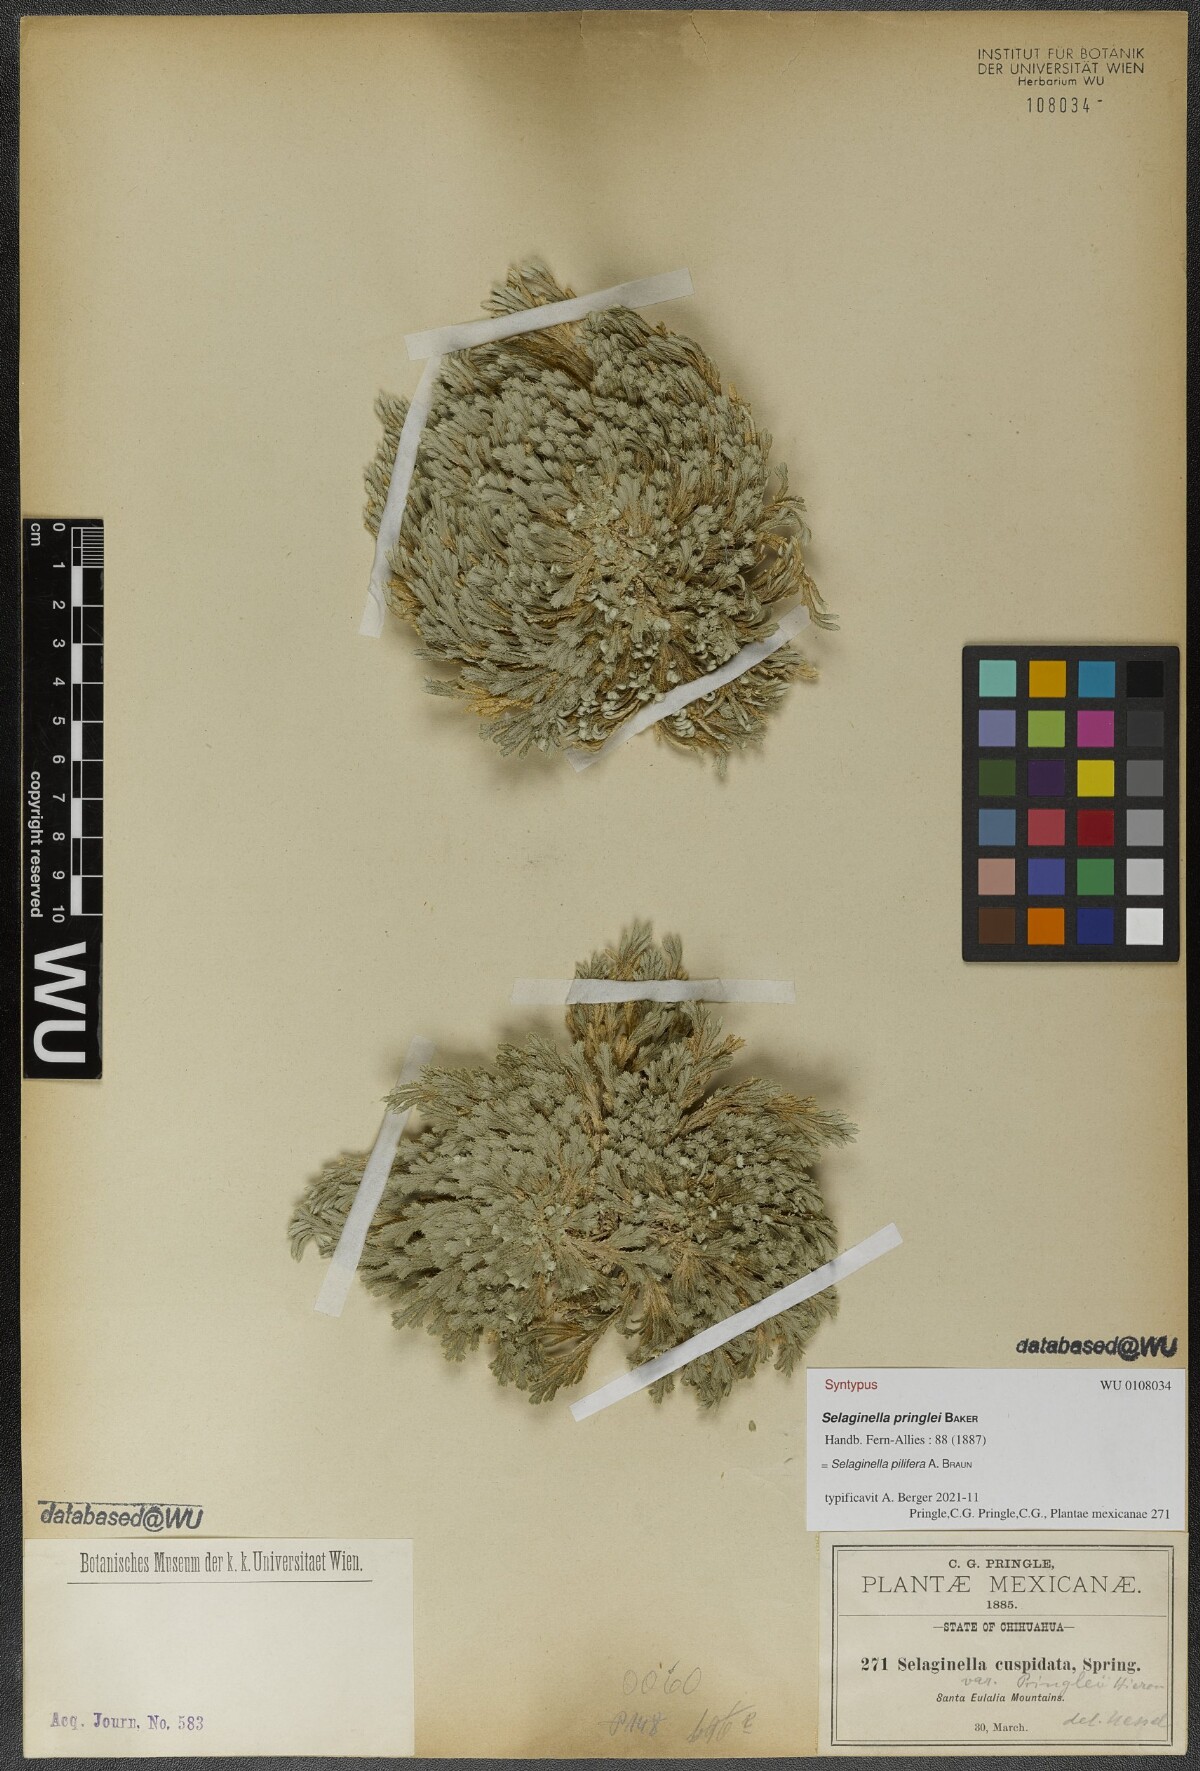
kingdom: Plantae
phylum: Tracheophyta
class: Lycopodiopsida
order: Selaginellales
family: Selaginellaceae
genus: Selaginella
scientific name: Selaginella pilifera
